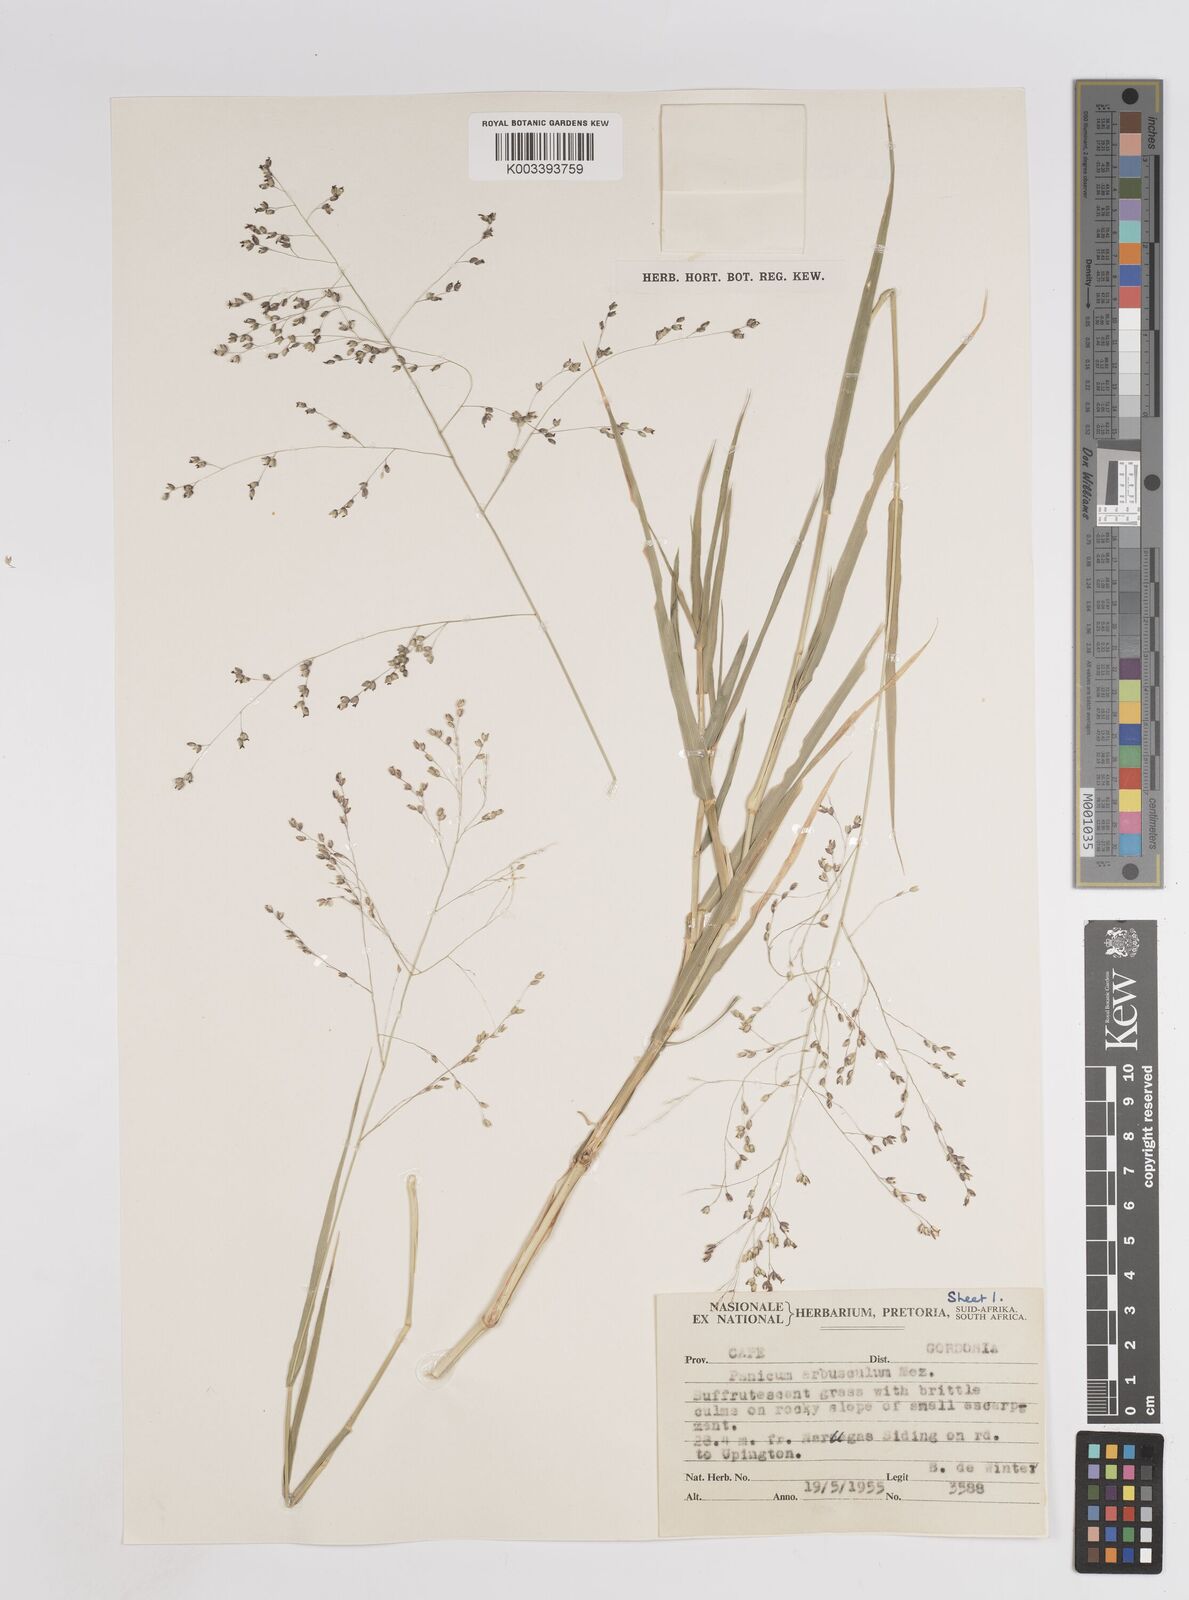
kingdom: Plantae
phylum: Tracheophyta
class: Liliopsida
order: Poales
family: Poaceae
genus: Isachne
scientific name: Isachne rigens
